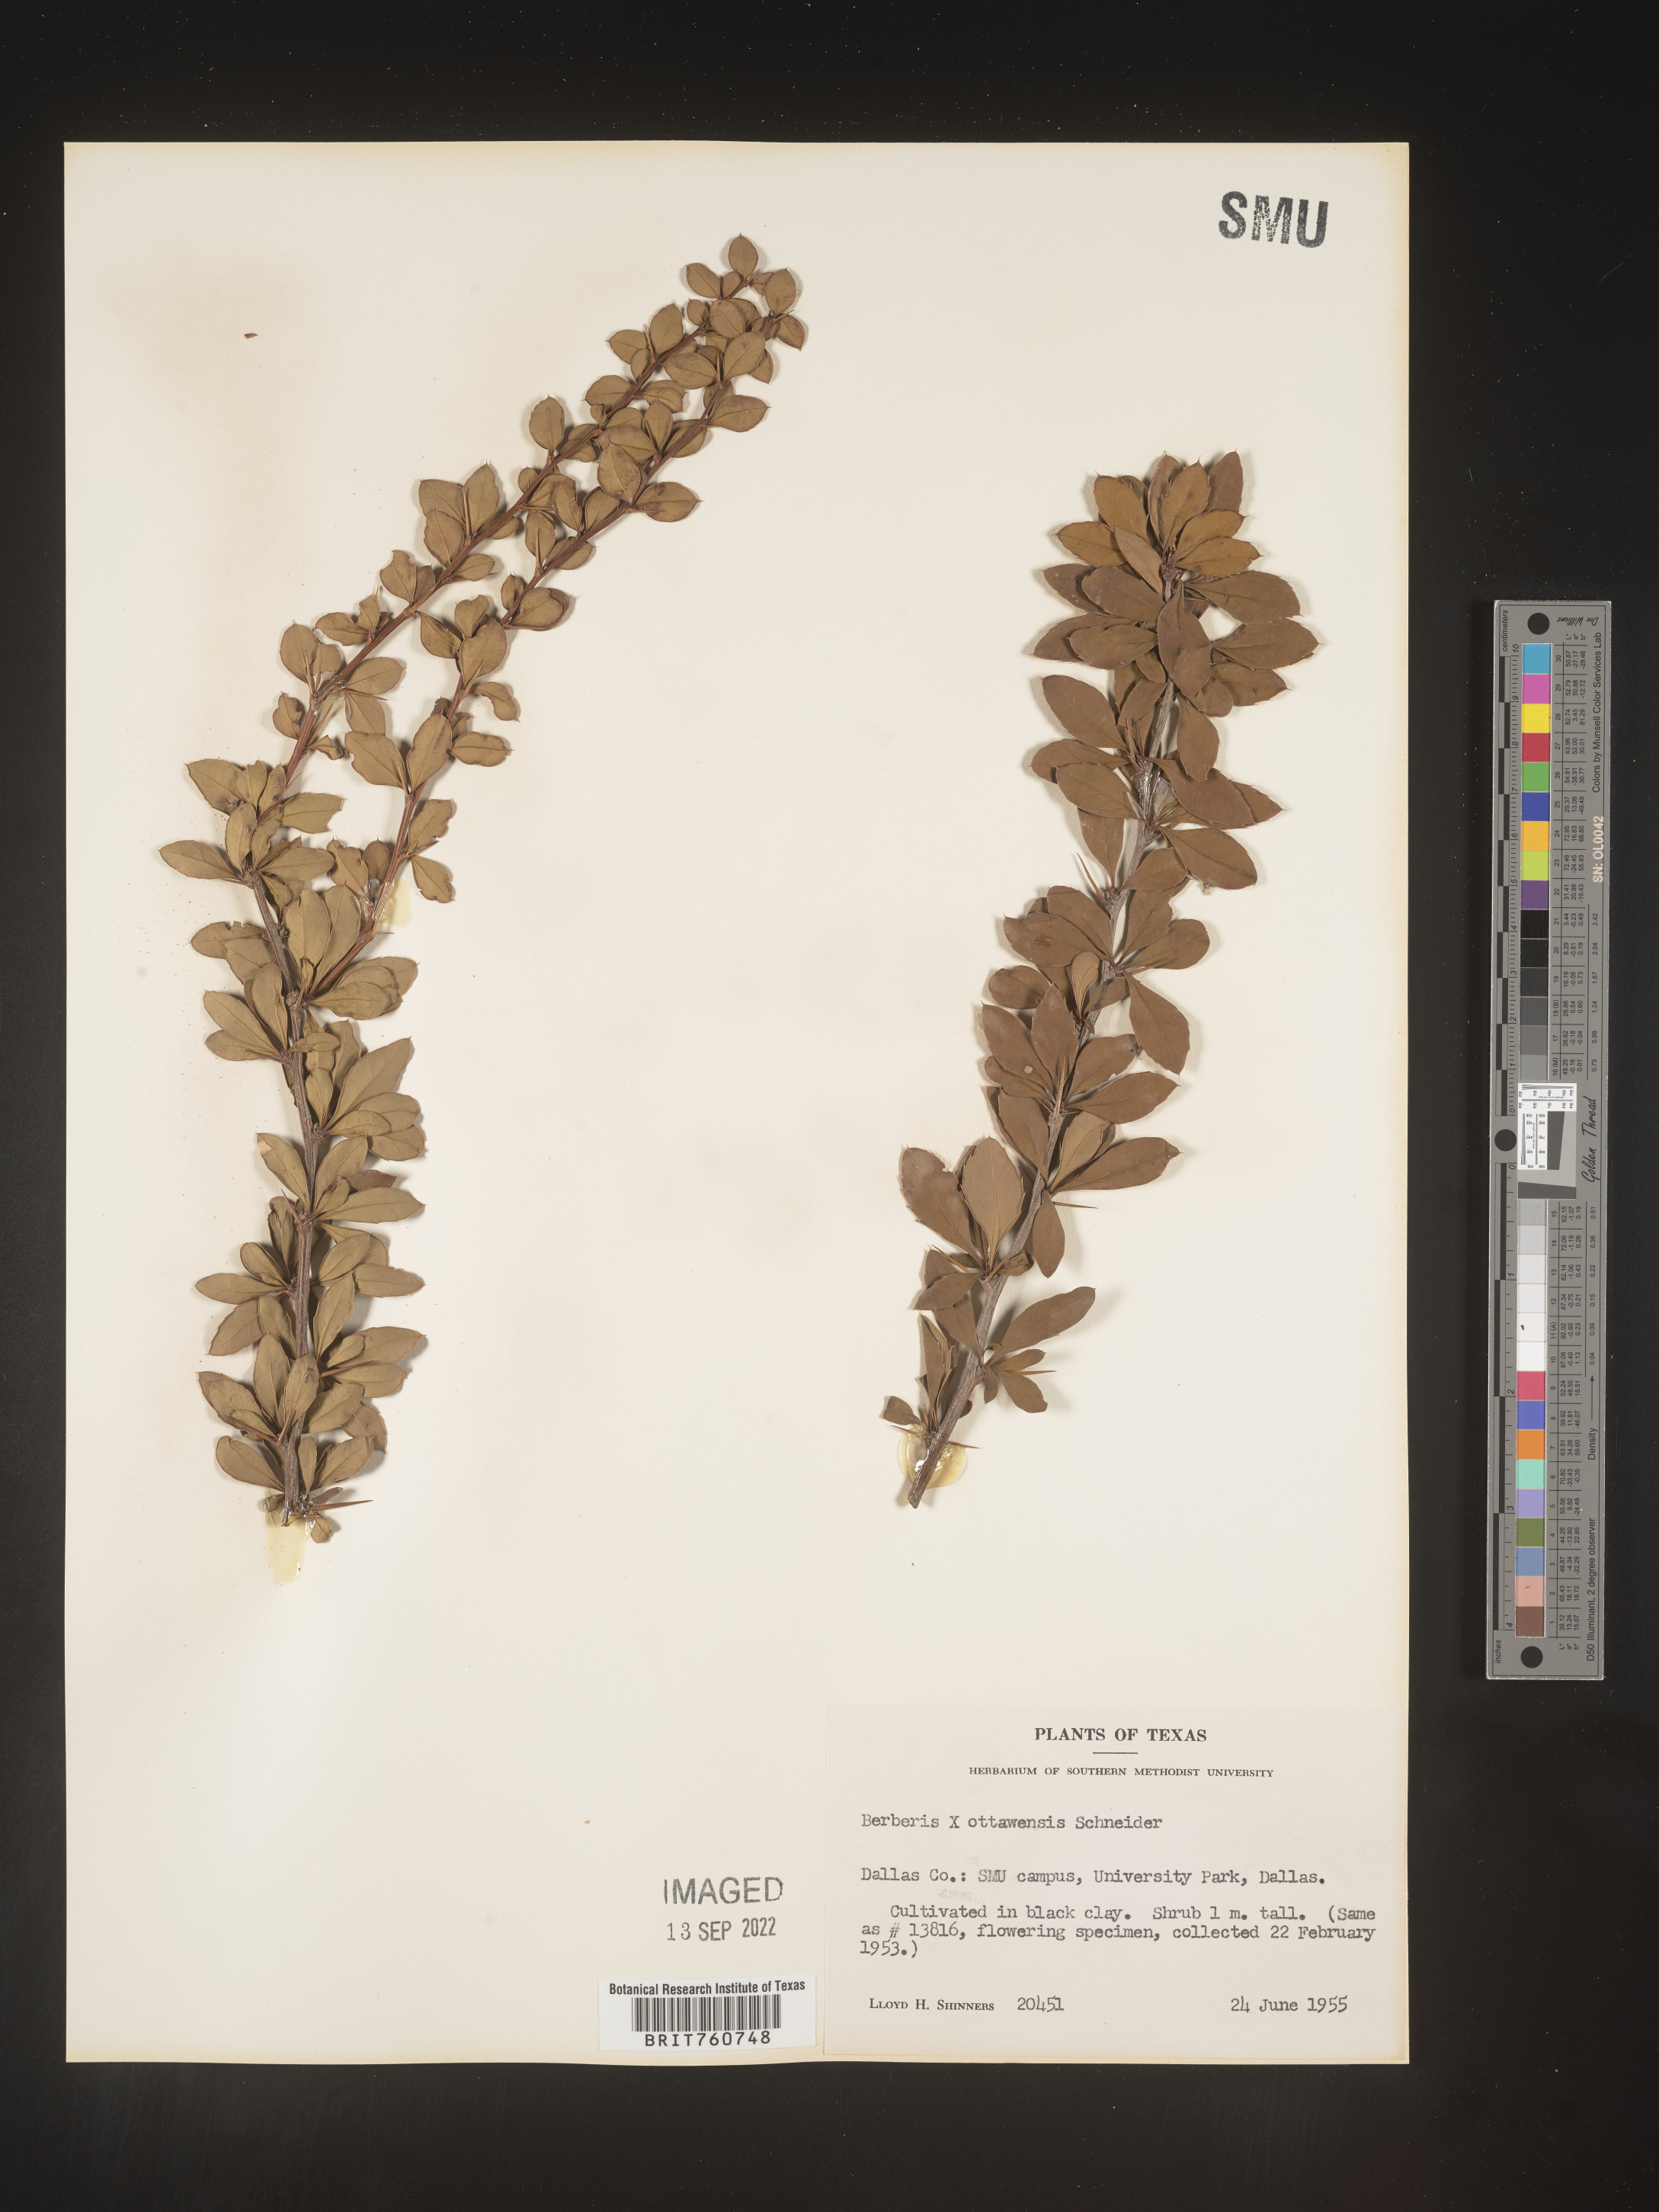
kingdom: Plantae
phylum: Tracheophyta
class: Magnoliopsida
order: Ranunculales
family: Berberidaceae
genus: Berberis
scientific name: Berberis
